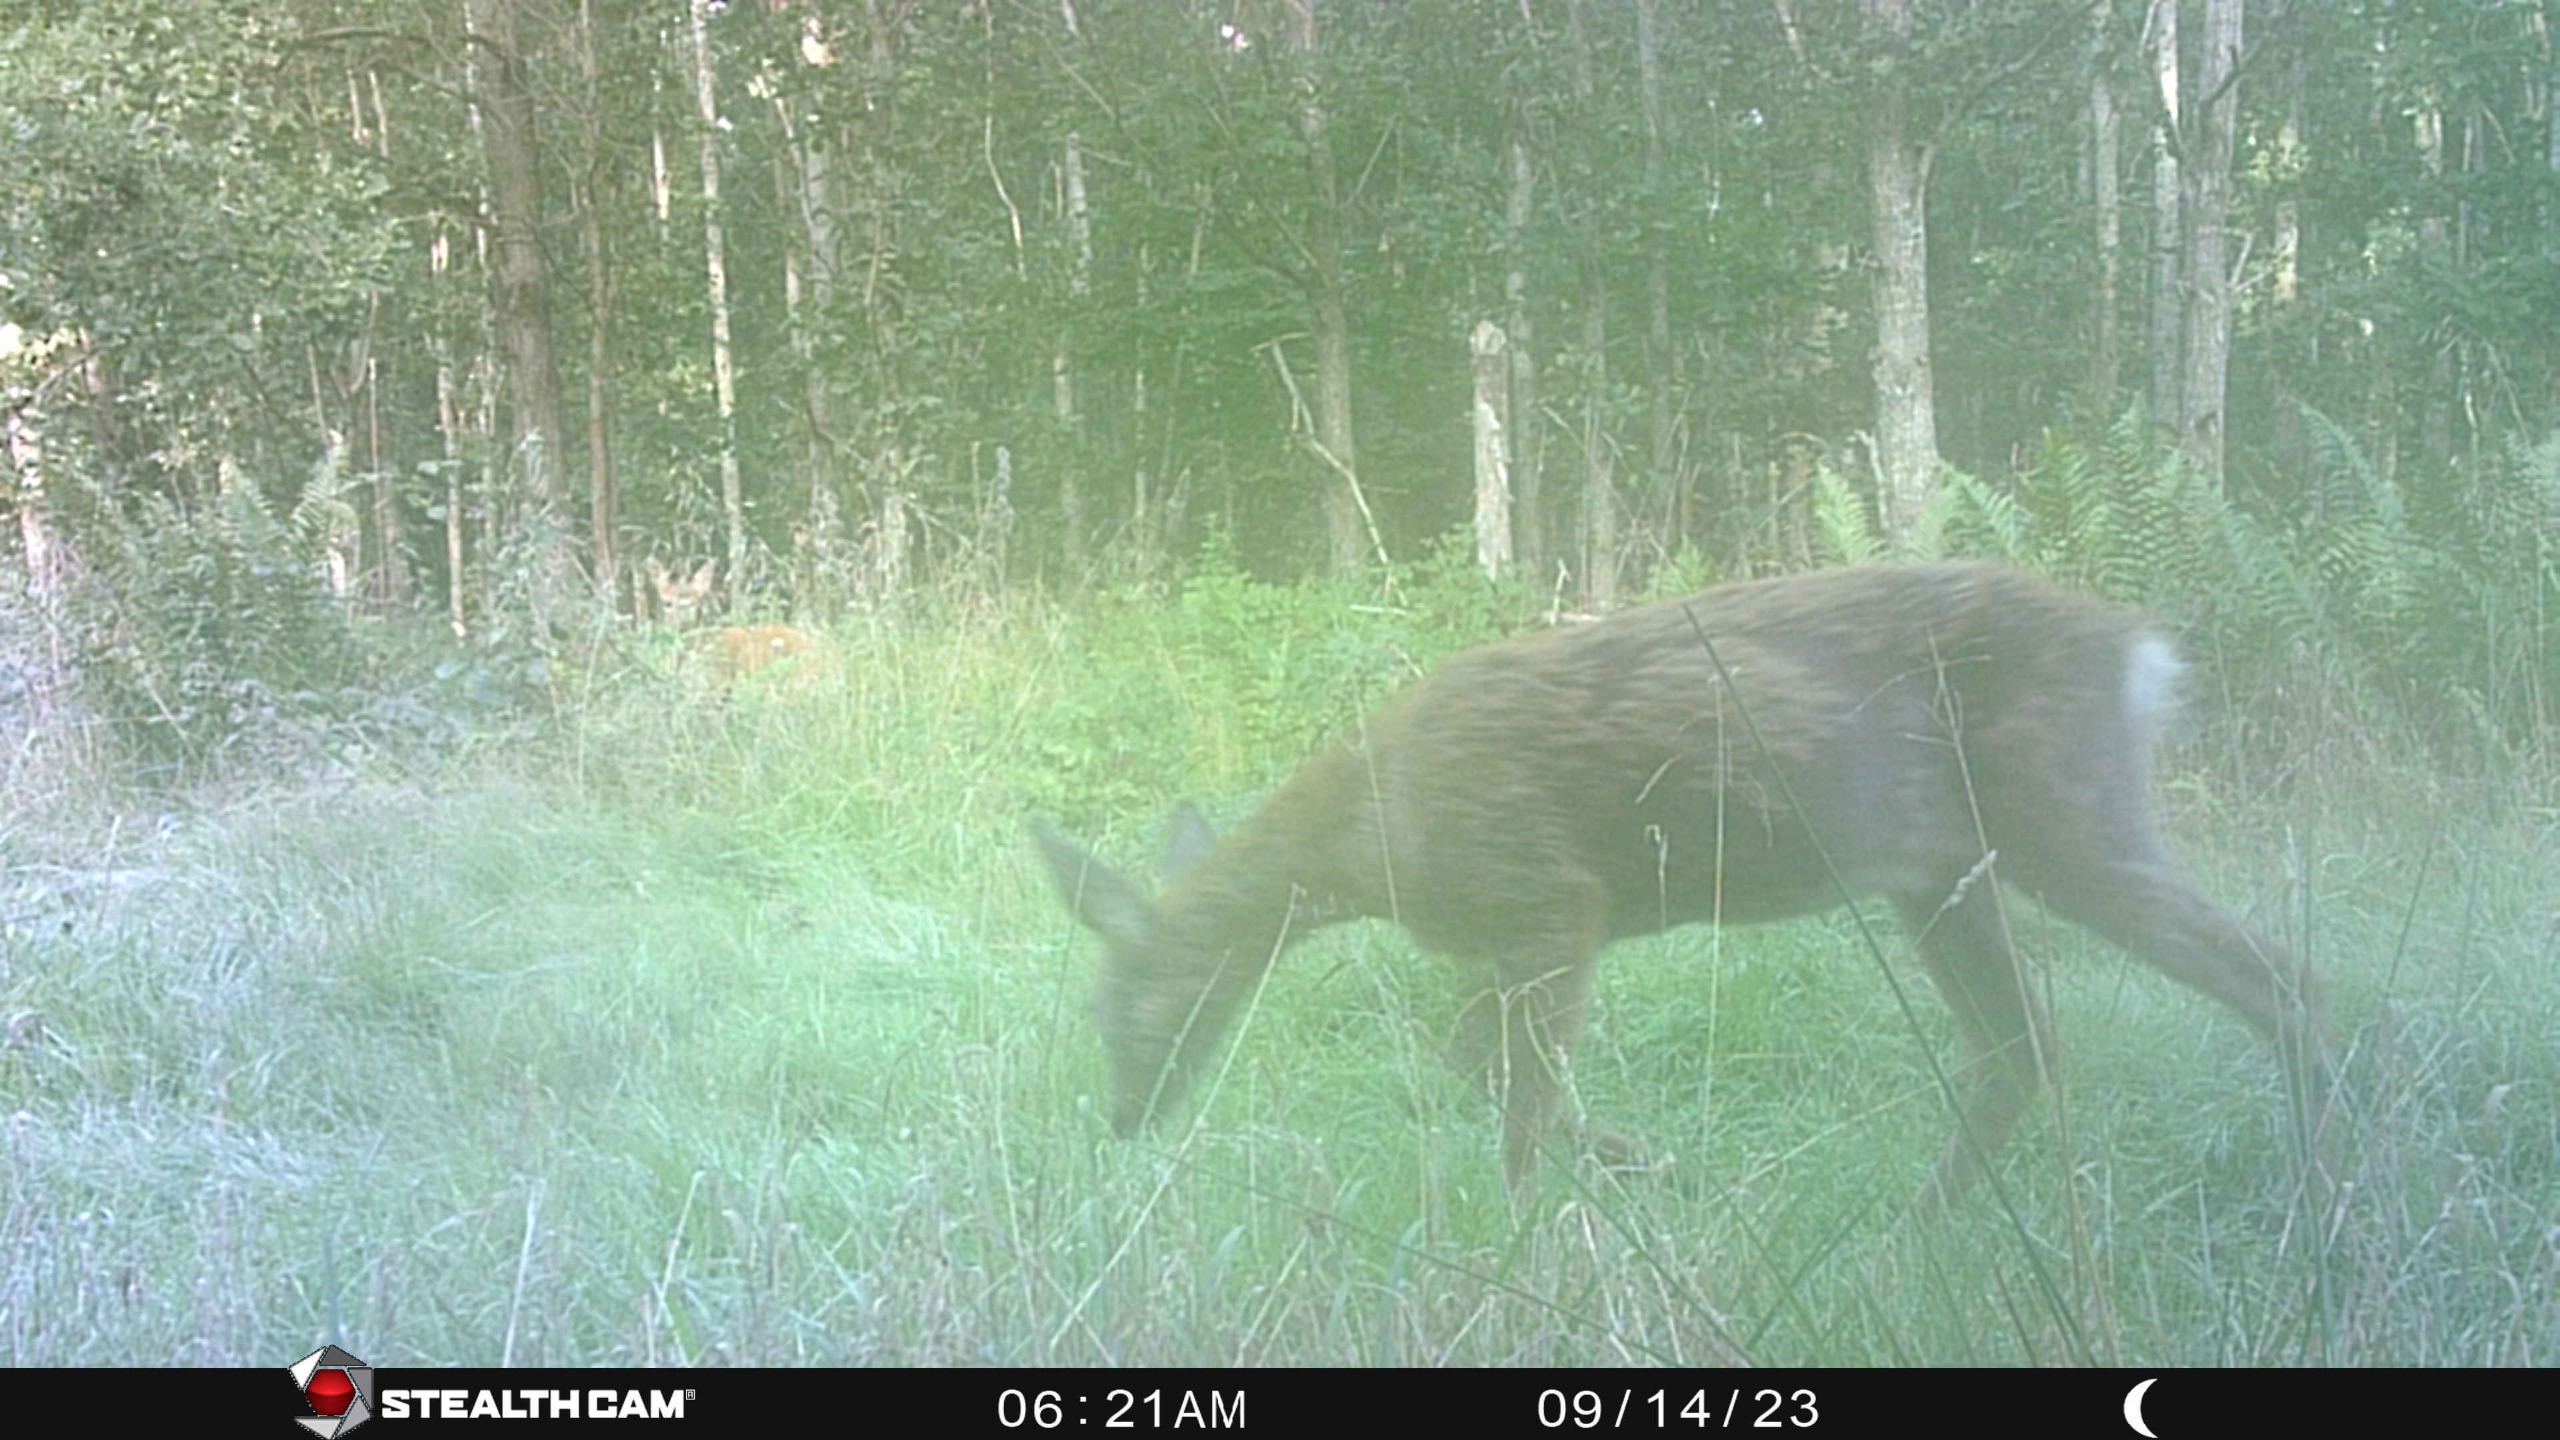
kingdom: Animalia
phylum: Chordata
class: Mammalia
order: Artiodactyla
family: Cervidae
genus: Capreolus
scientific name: Capreolus capreolus
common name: Rådyr
